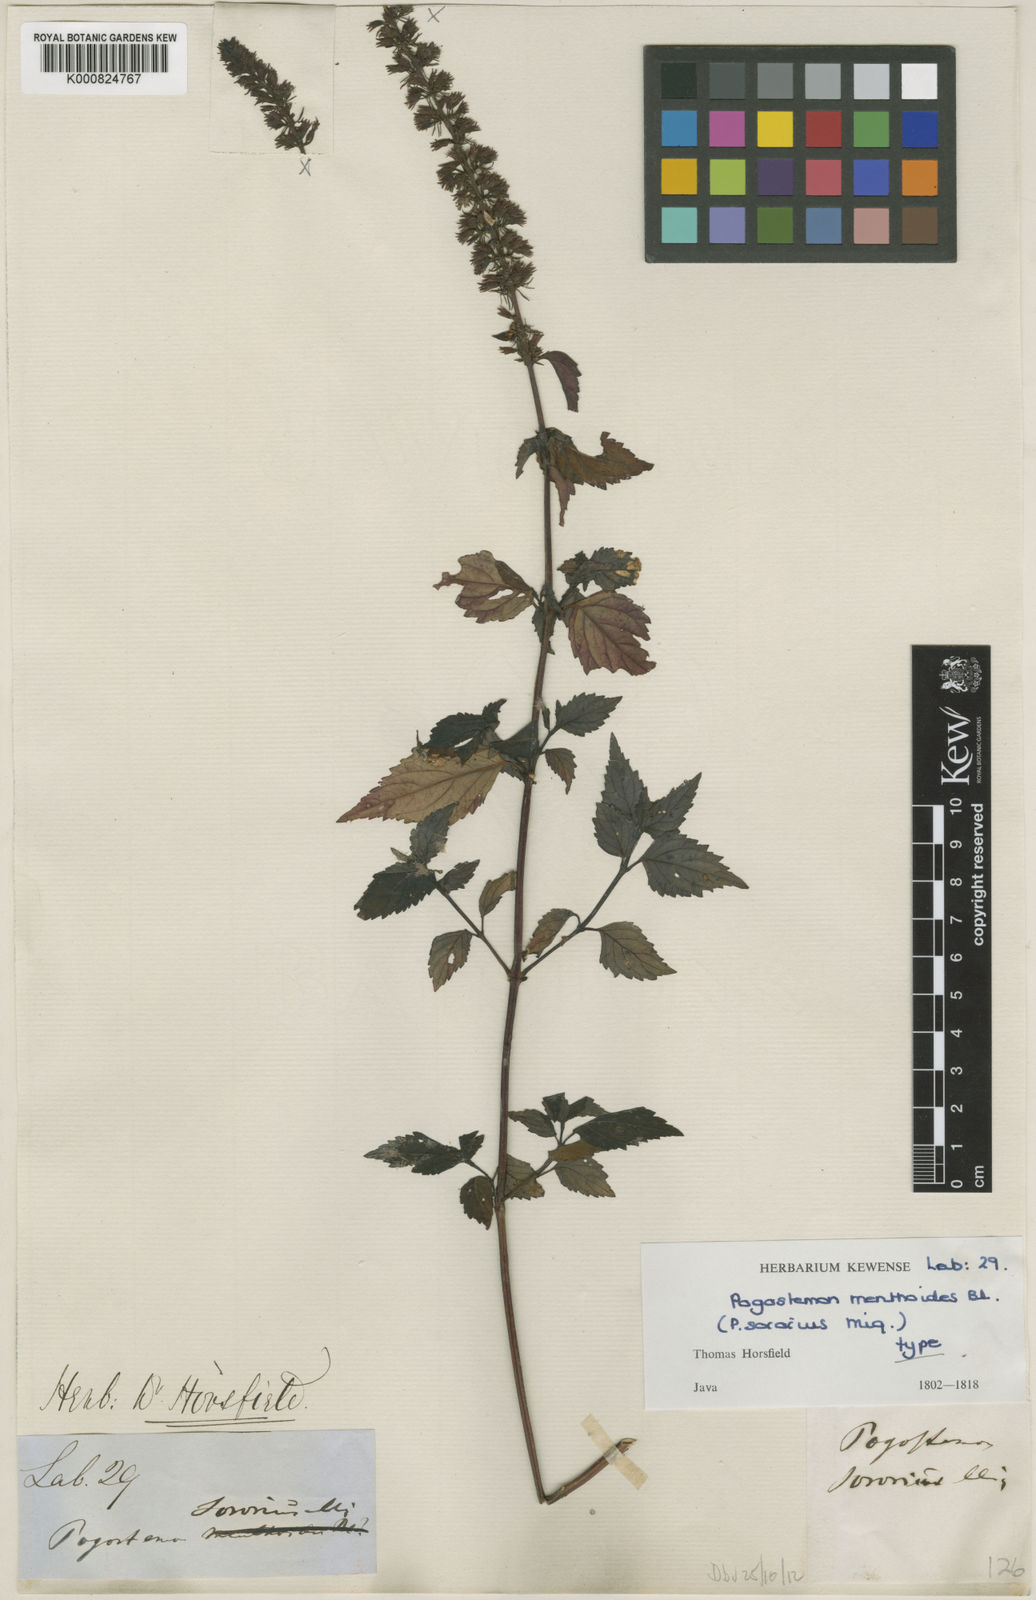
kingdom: Plantae
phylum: Tracheophyta
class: Magnoliopsida
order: Lamiales
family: Lamiaceae
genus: Pogostemon
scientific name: Pogostemon menthoides
